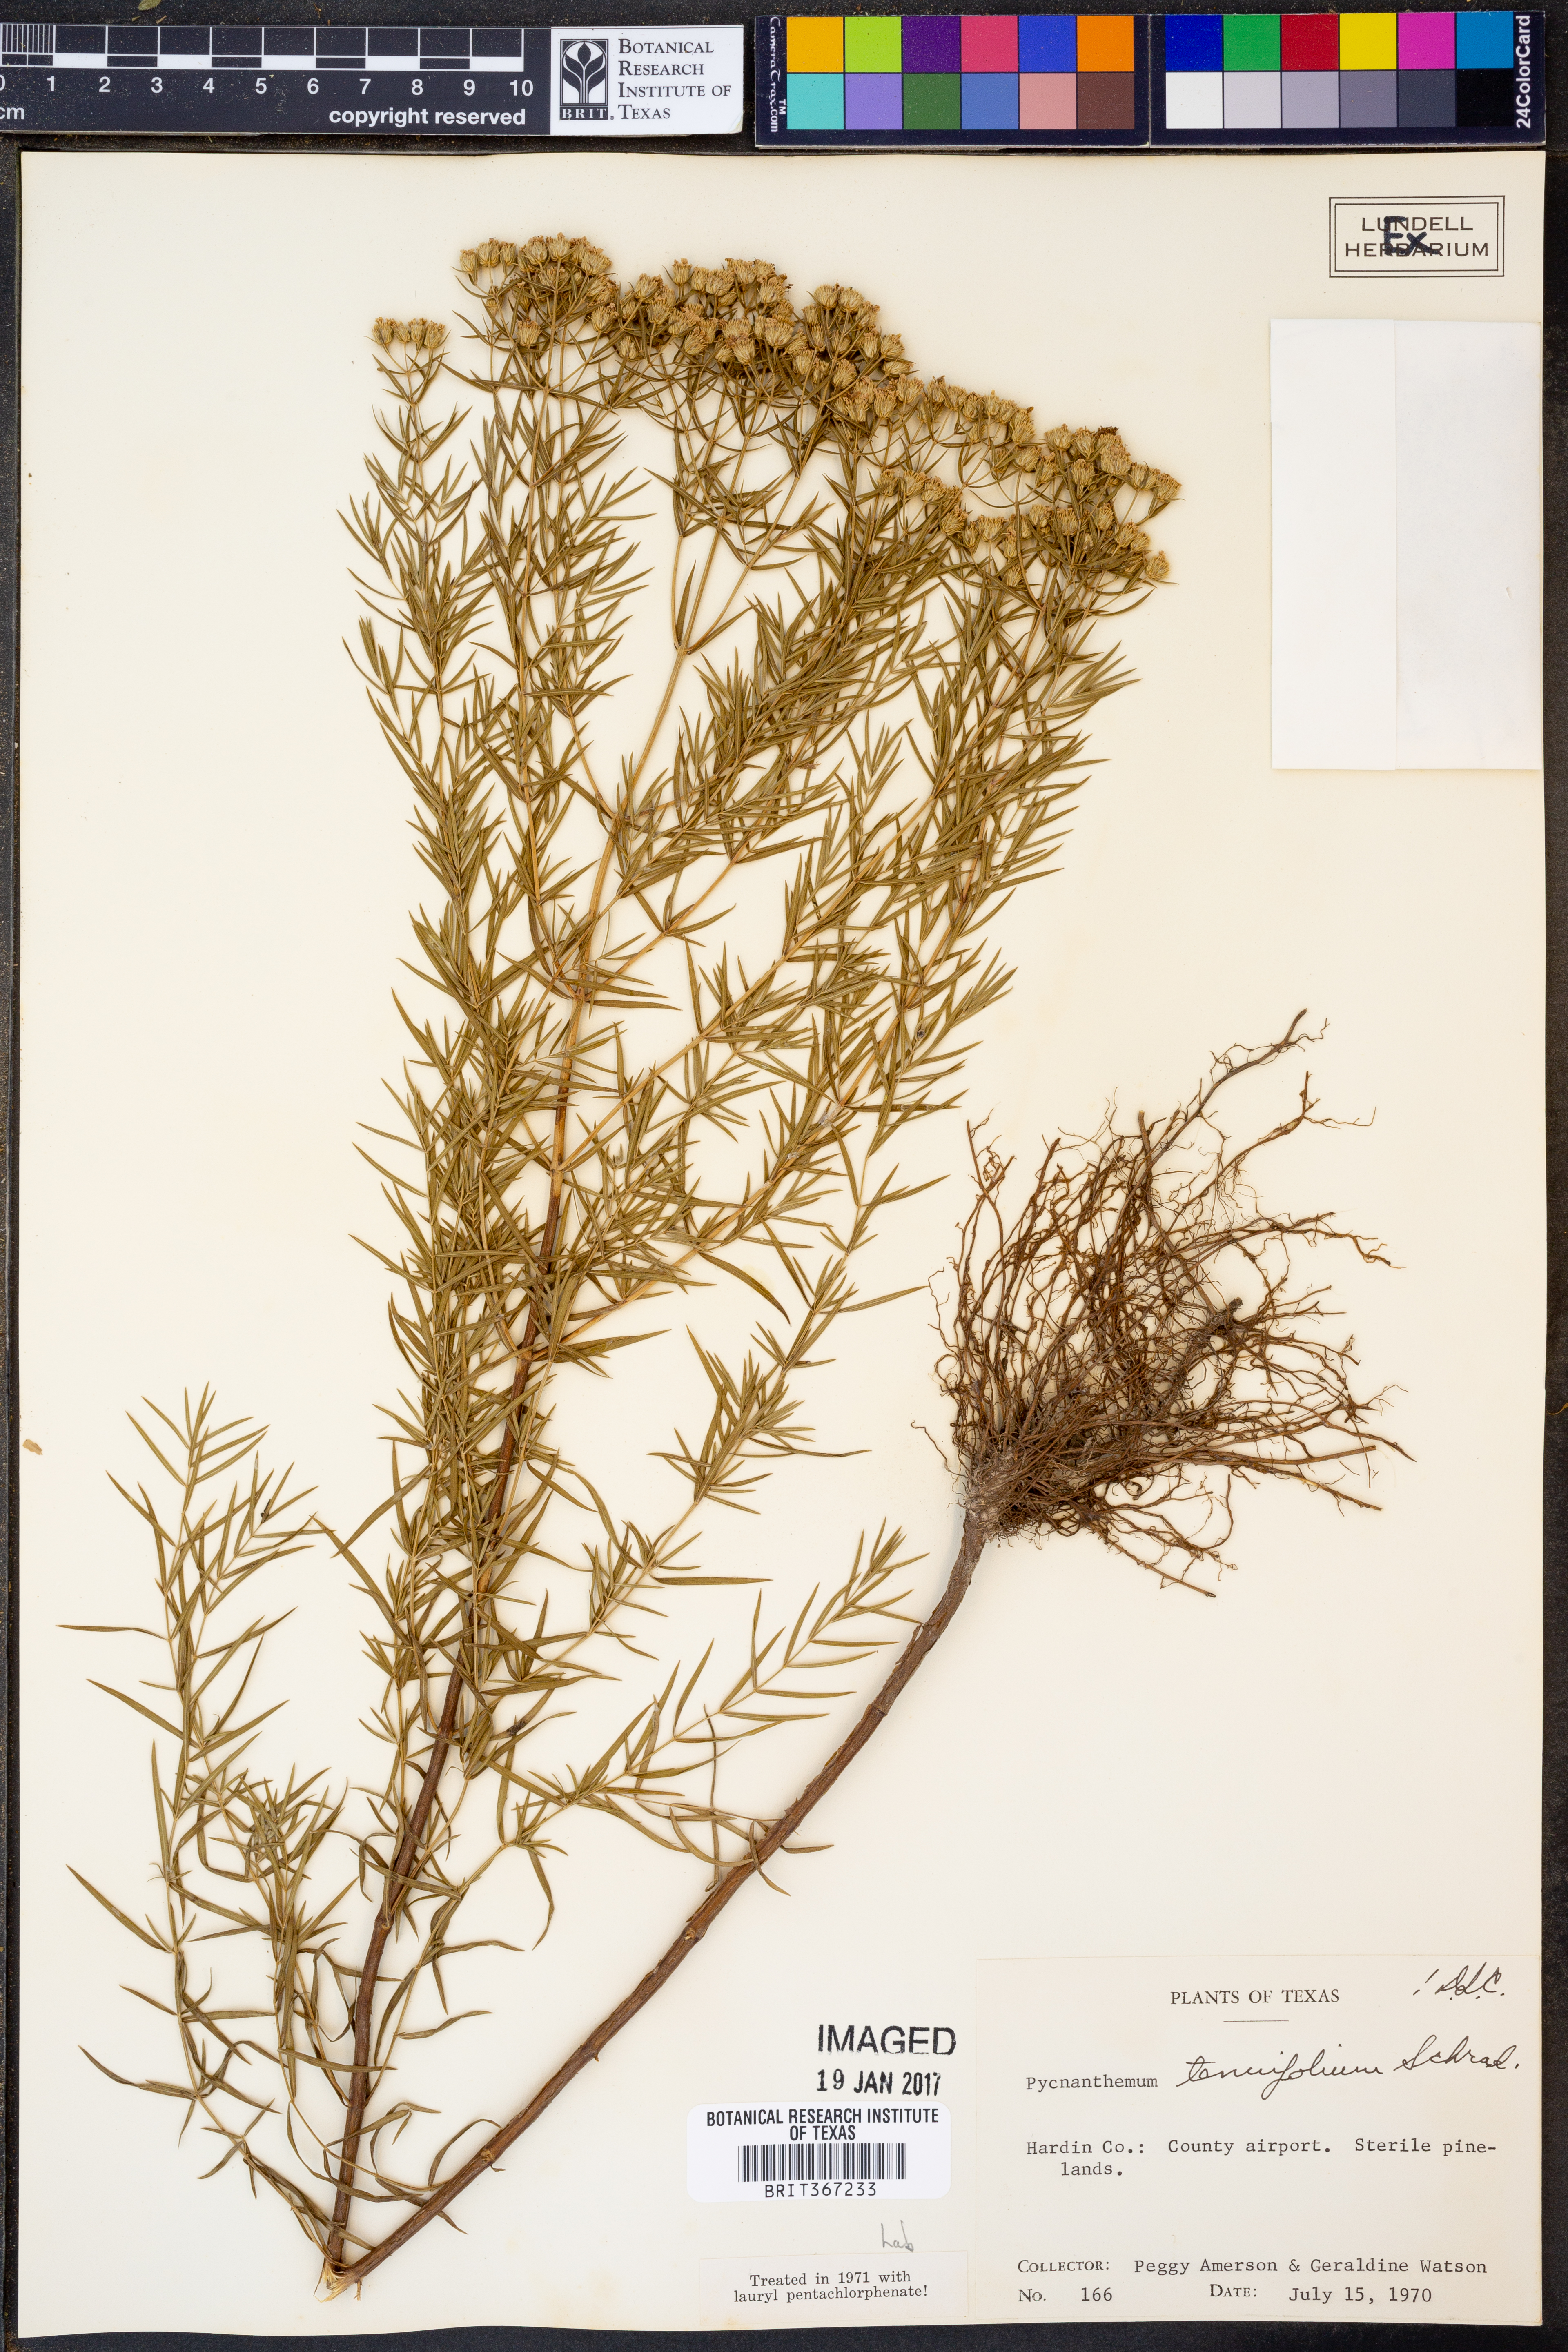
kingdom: Plantae
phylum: Tracheophyta
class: Magnoliopsida
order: Lamiales
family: Lamiaceae
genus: Pycnanthemum
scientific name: Pycnanthemum tenuifolium
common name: Narrow-leaf mountain-mint
